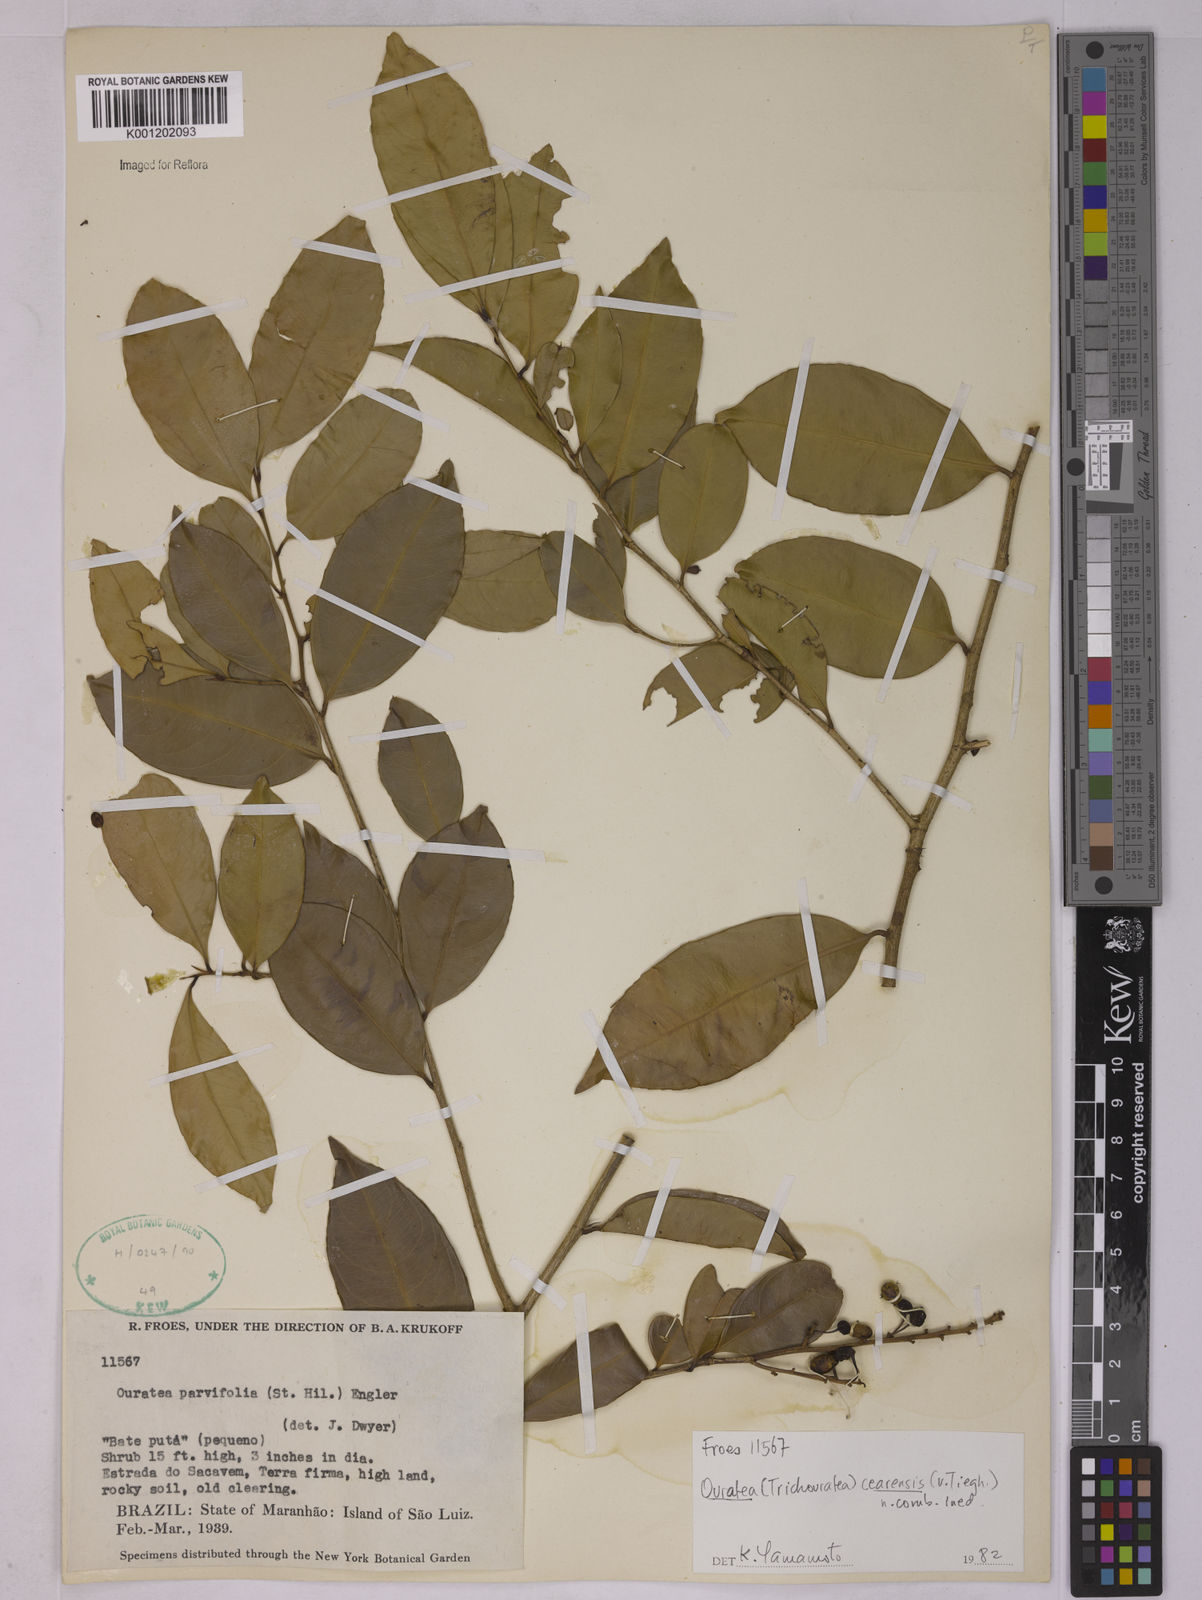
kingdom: Plantae
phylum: Tracheophyta
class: Magnoliopsida
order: Malpighiales
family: Ochnaceae
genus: Ouratea
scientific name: Ouratea cearensis
